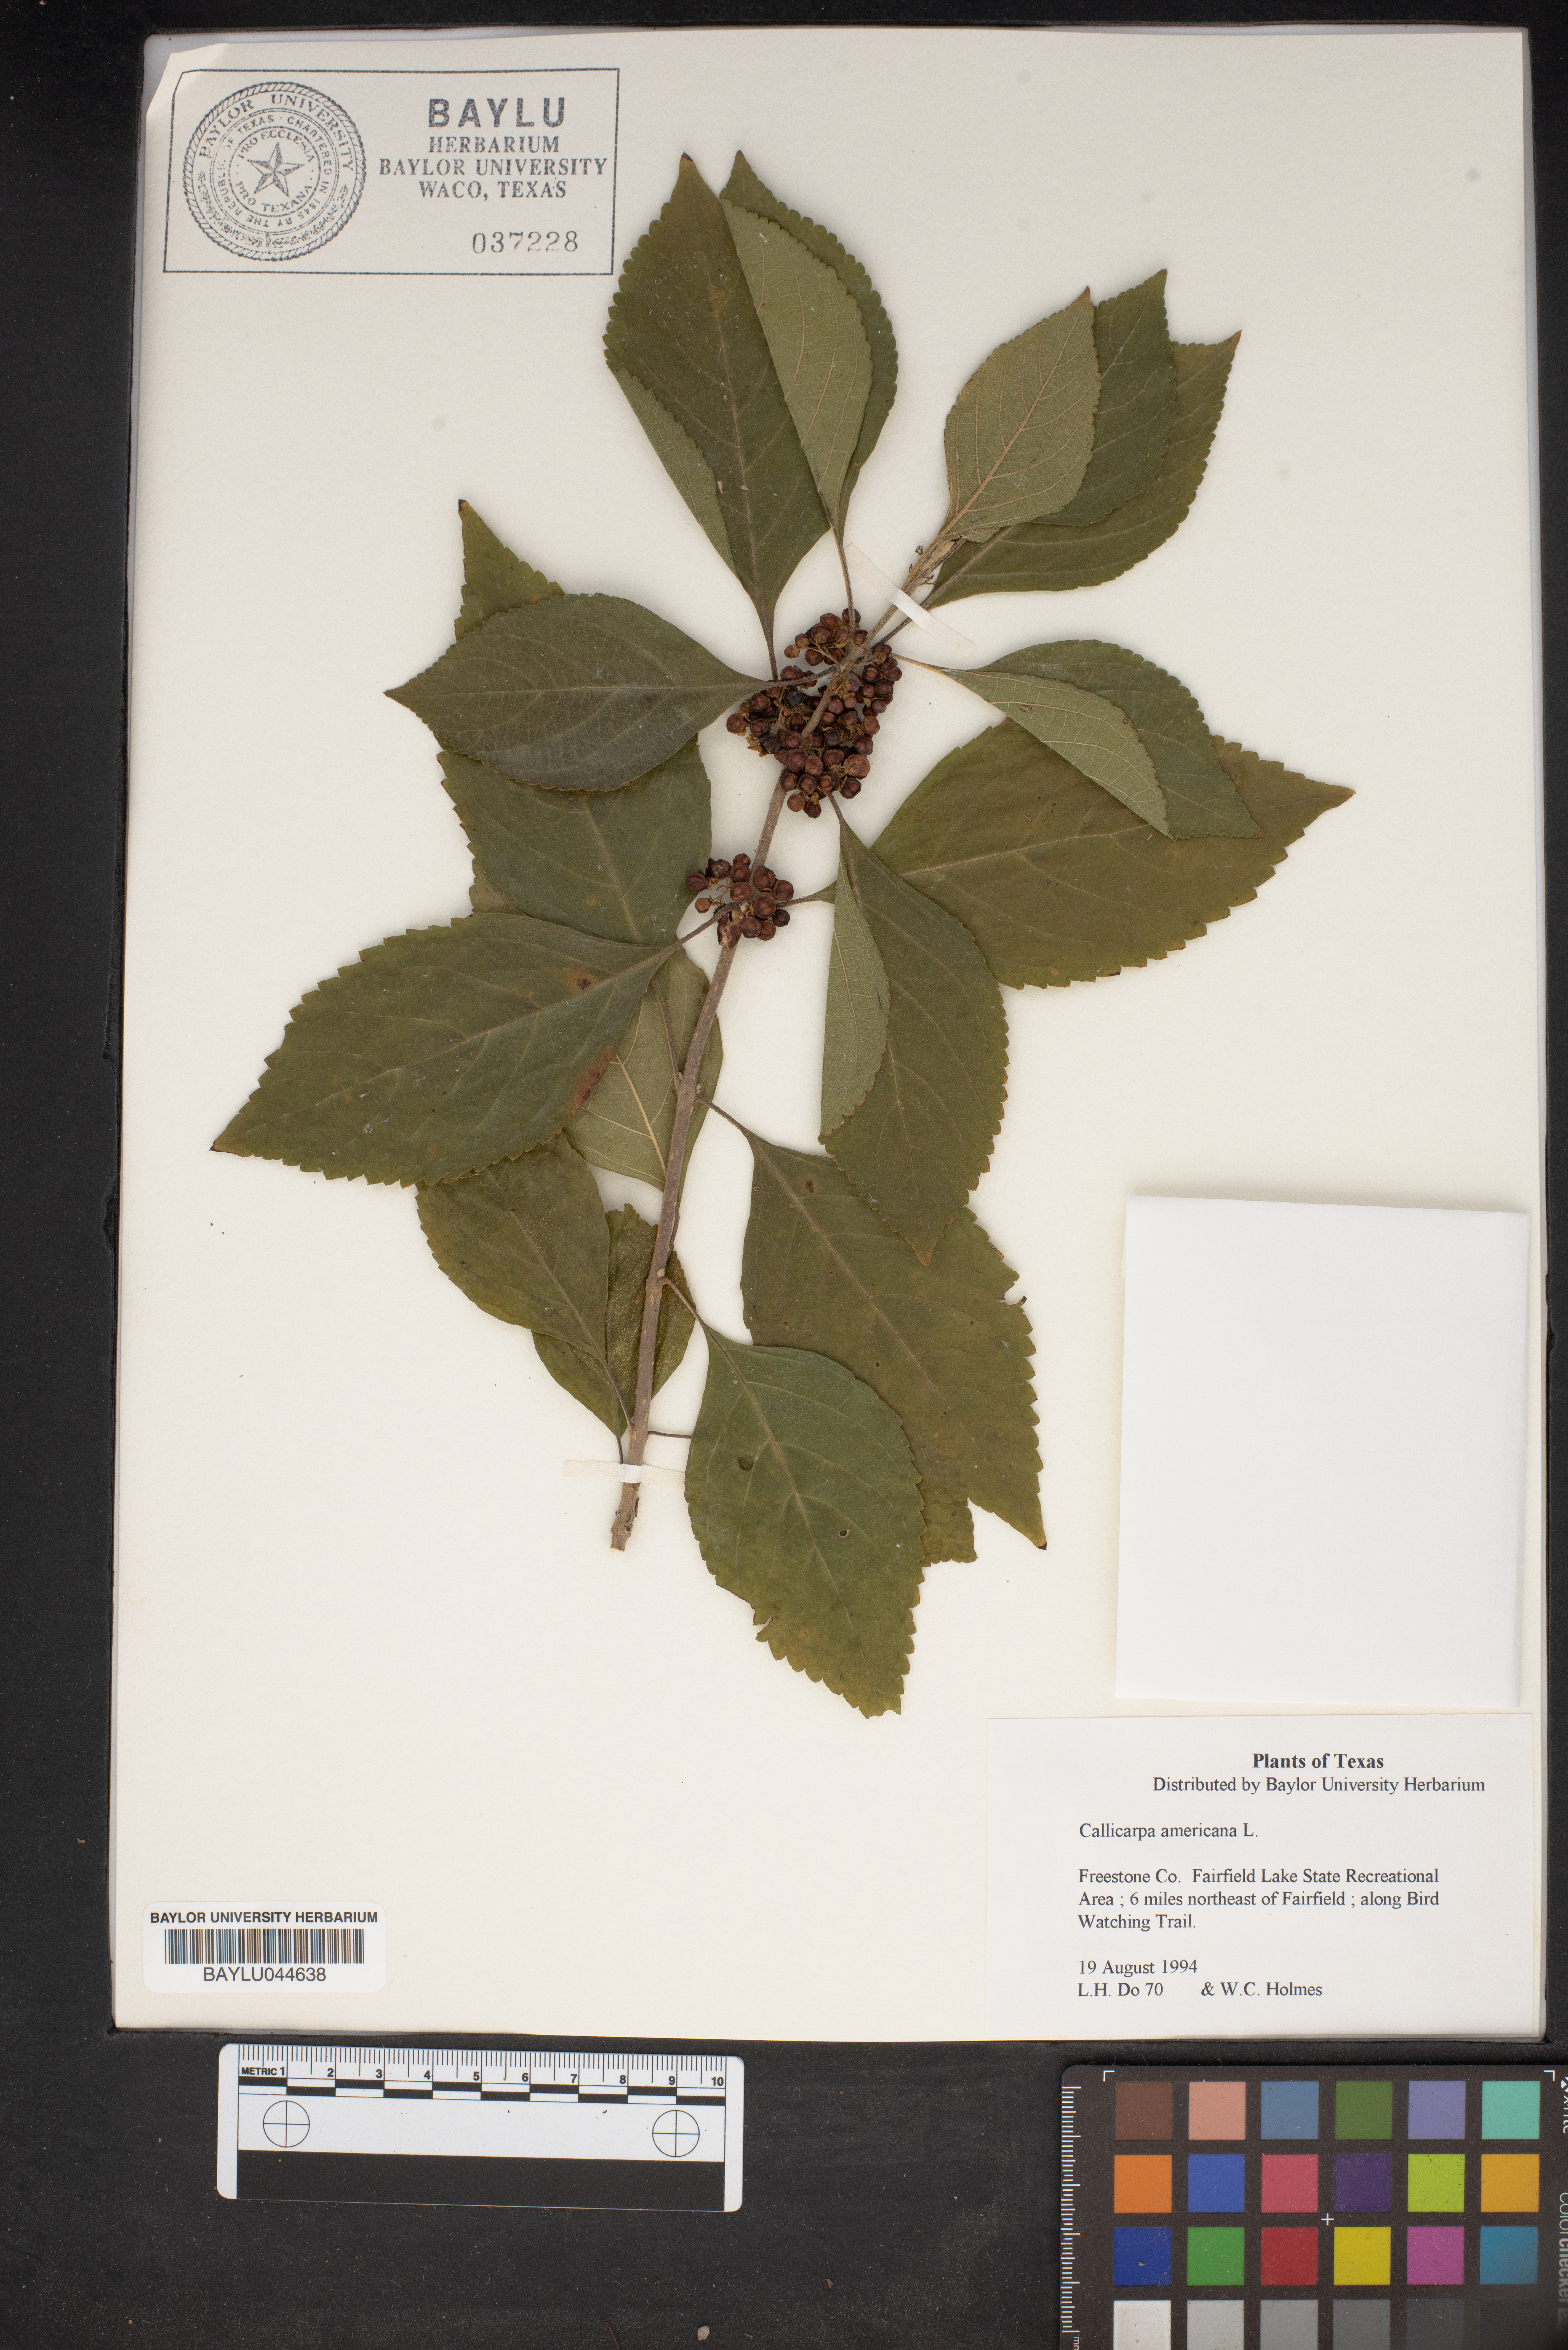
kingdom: Plantae
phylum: Tracheophyta
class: Magnoliopsida
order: Lamiales
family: Lamiaceae
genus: Callicarpa
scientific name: Callicarpa americana
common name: American beautyberry
